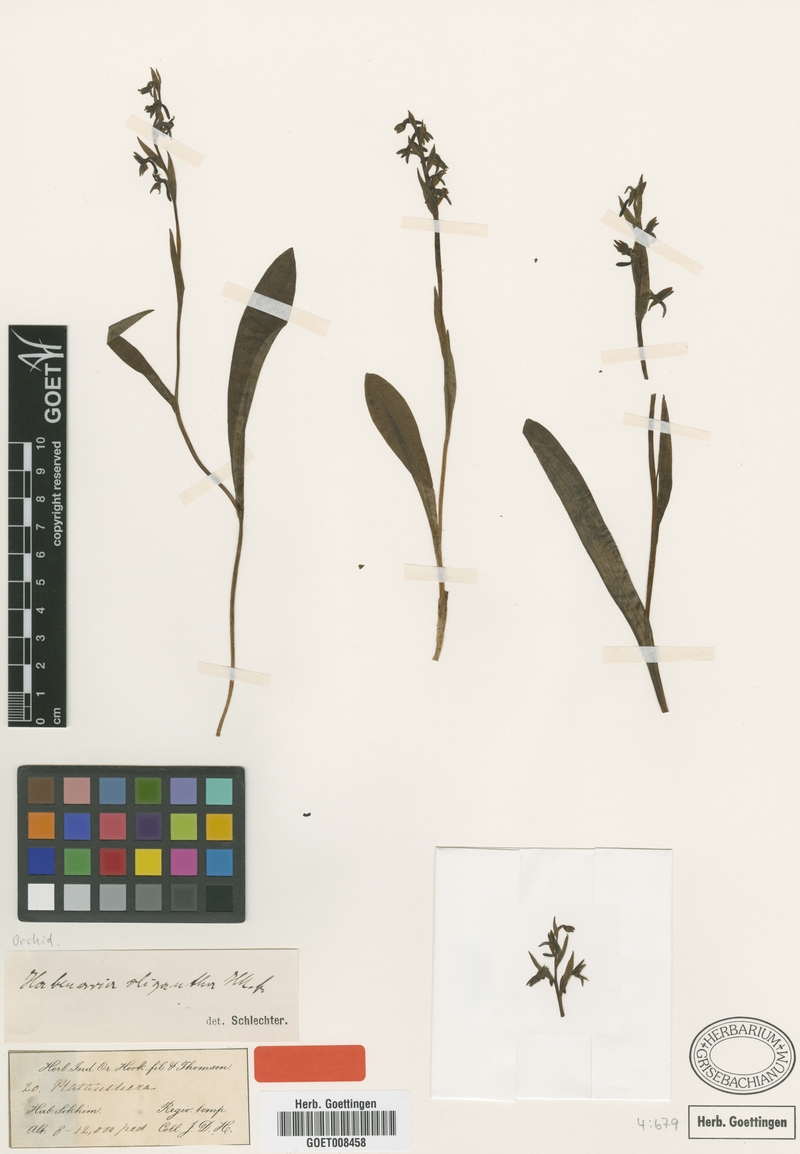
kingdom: Plantae
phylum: Tracheophyta
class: Liliopsida
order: Asparagales
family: Orchidaceae
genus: Platanthera
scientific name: Platanthera pachycaulon
